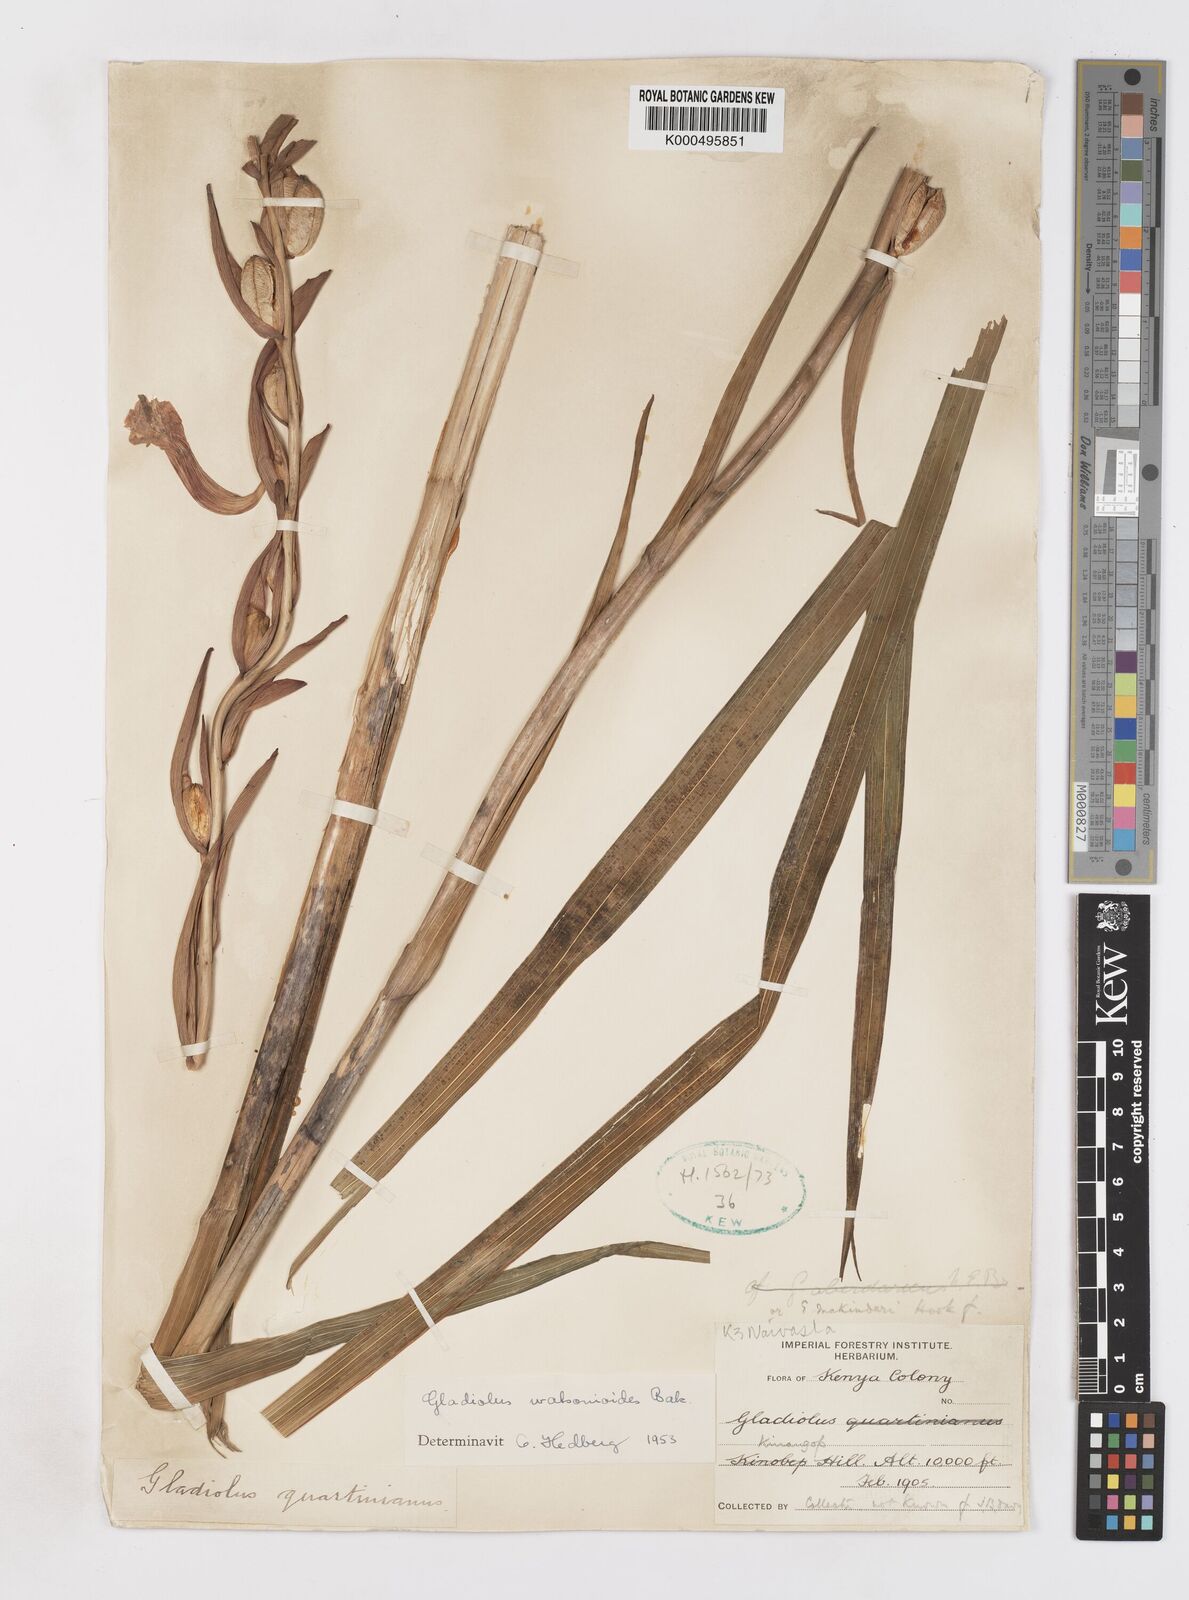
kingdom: Plantae
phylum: Tracheophyta
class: Liliopsida
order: Asparagales
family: Iridaceae
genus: Gladiolus
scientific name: Gladiolus watsonioides
